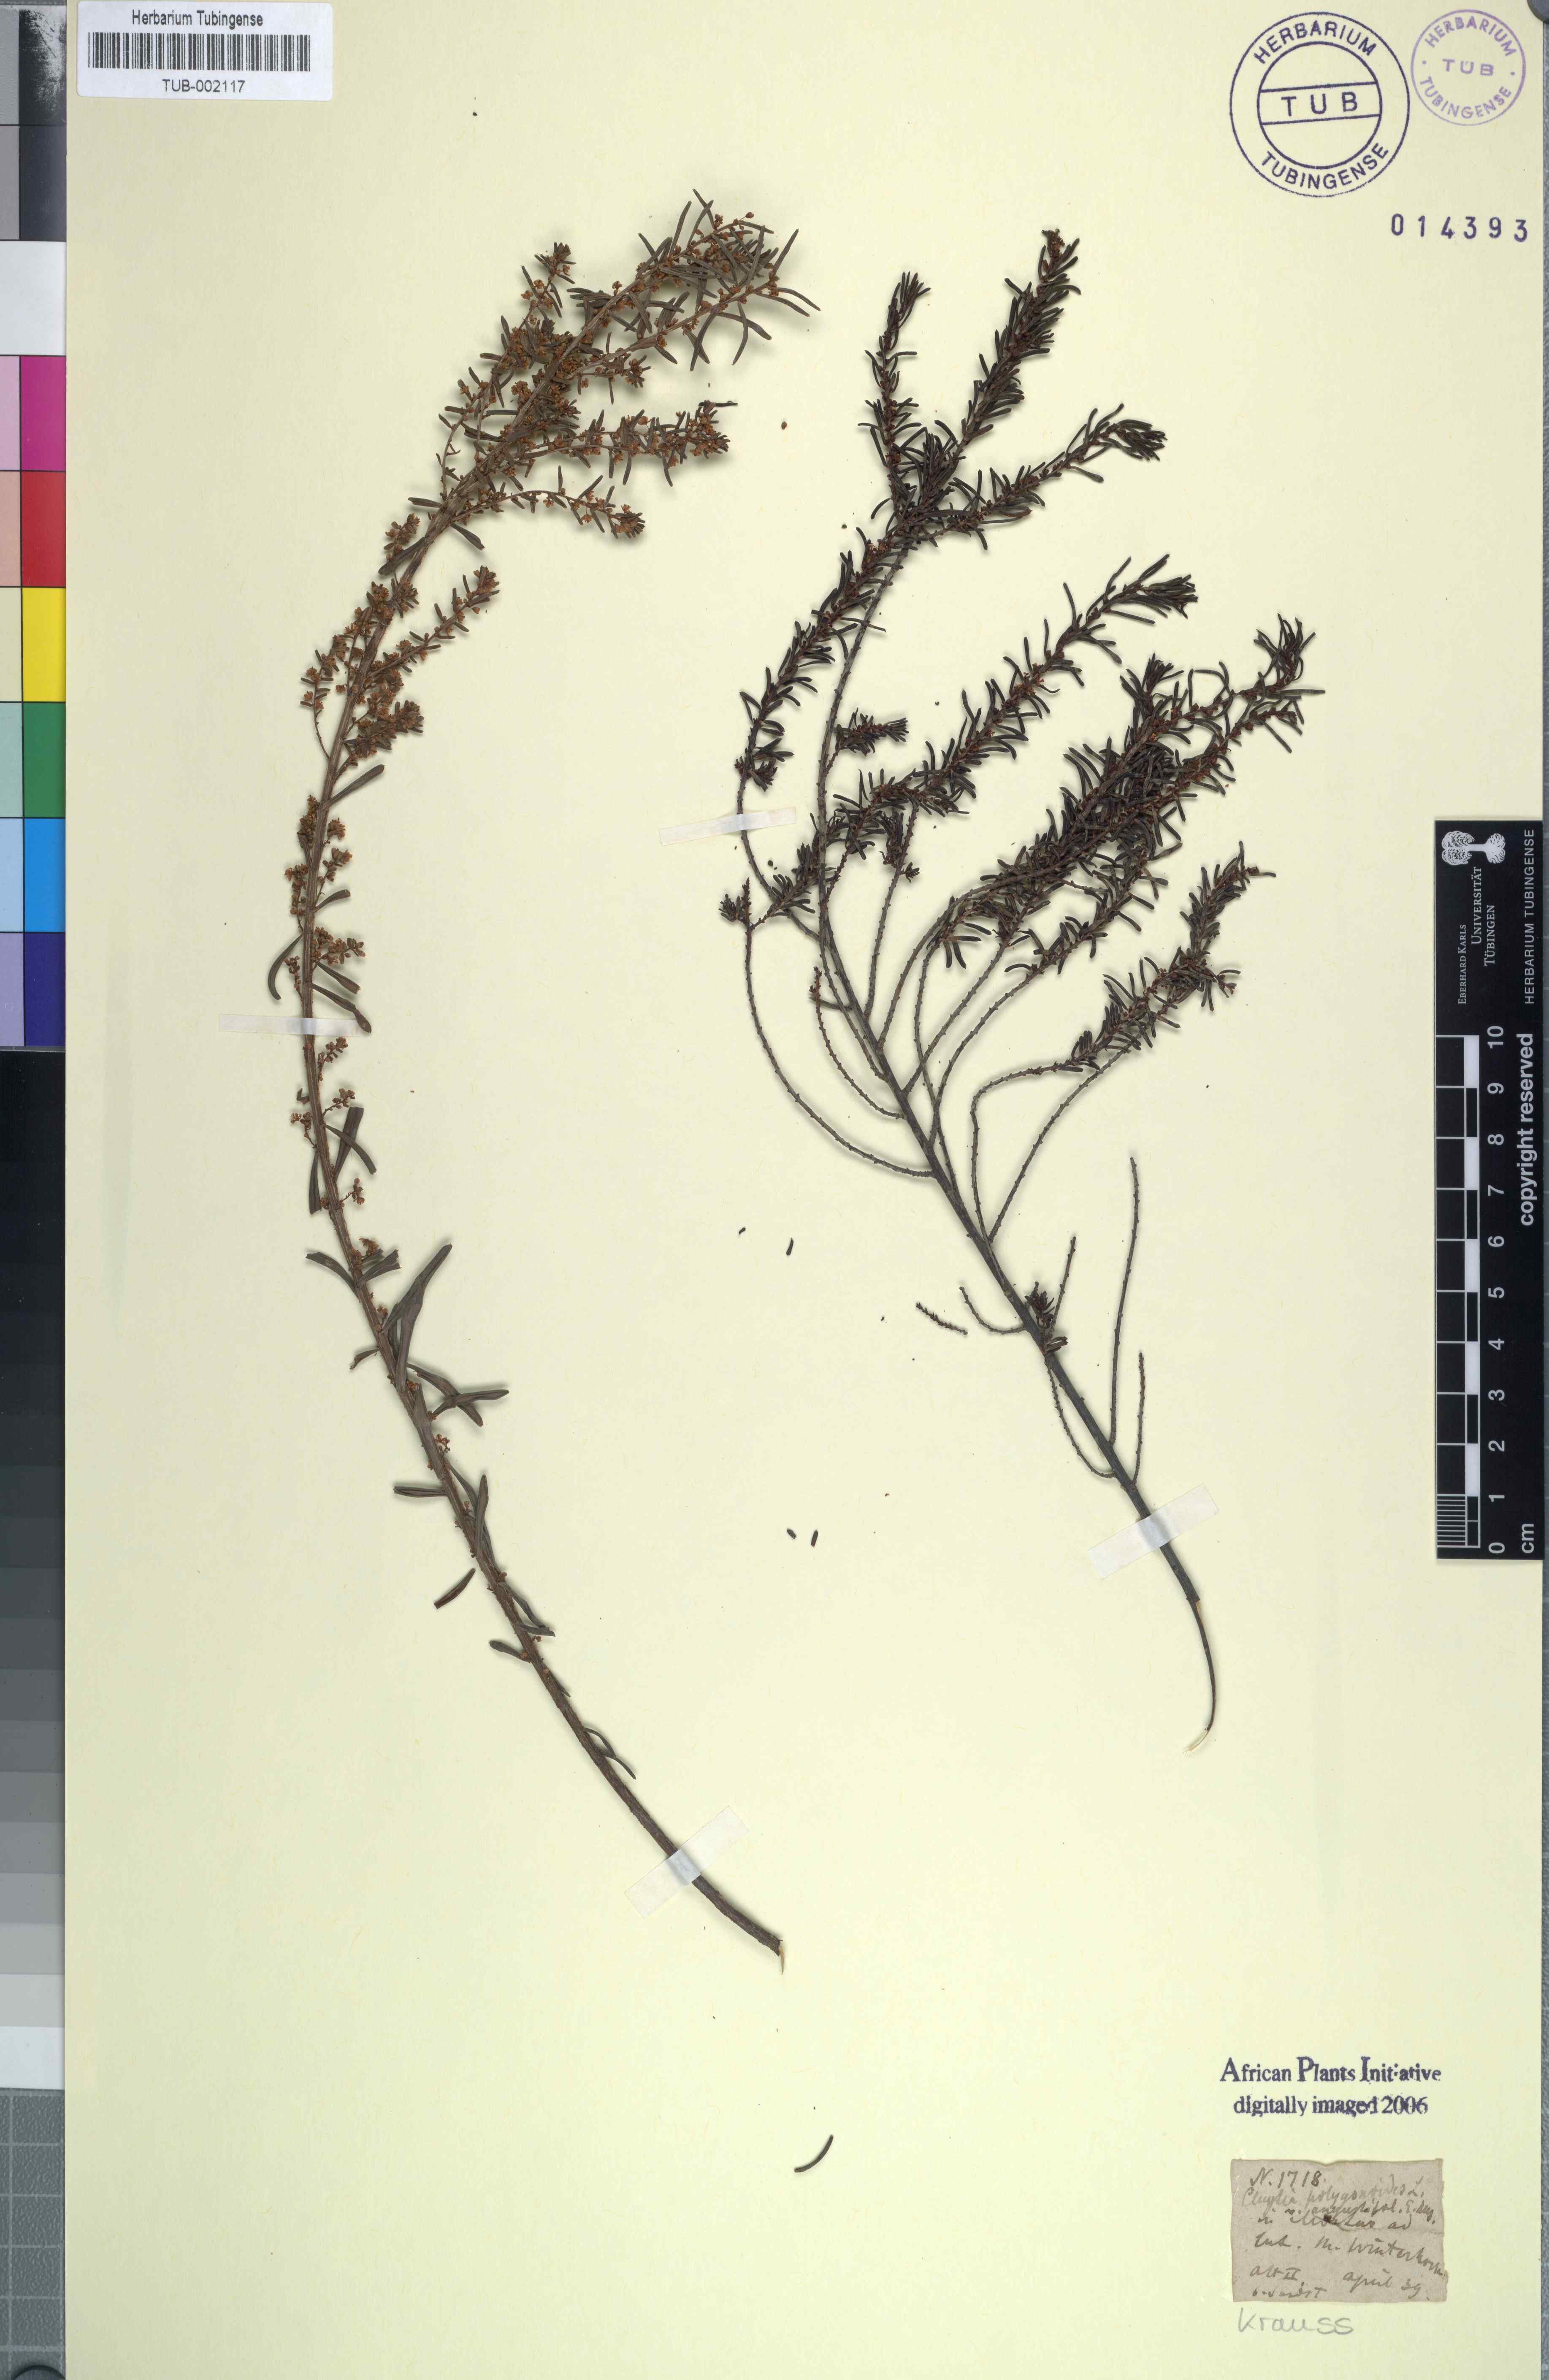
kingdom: Plantae
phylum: Tracheophyta
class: Magnoliopsida
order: Malpighiales
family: Peraceae
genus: Clutia
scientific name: Clutia polygonoides
